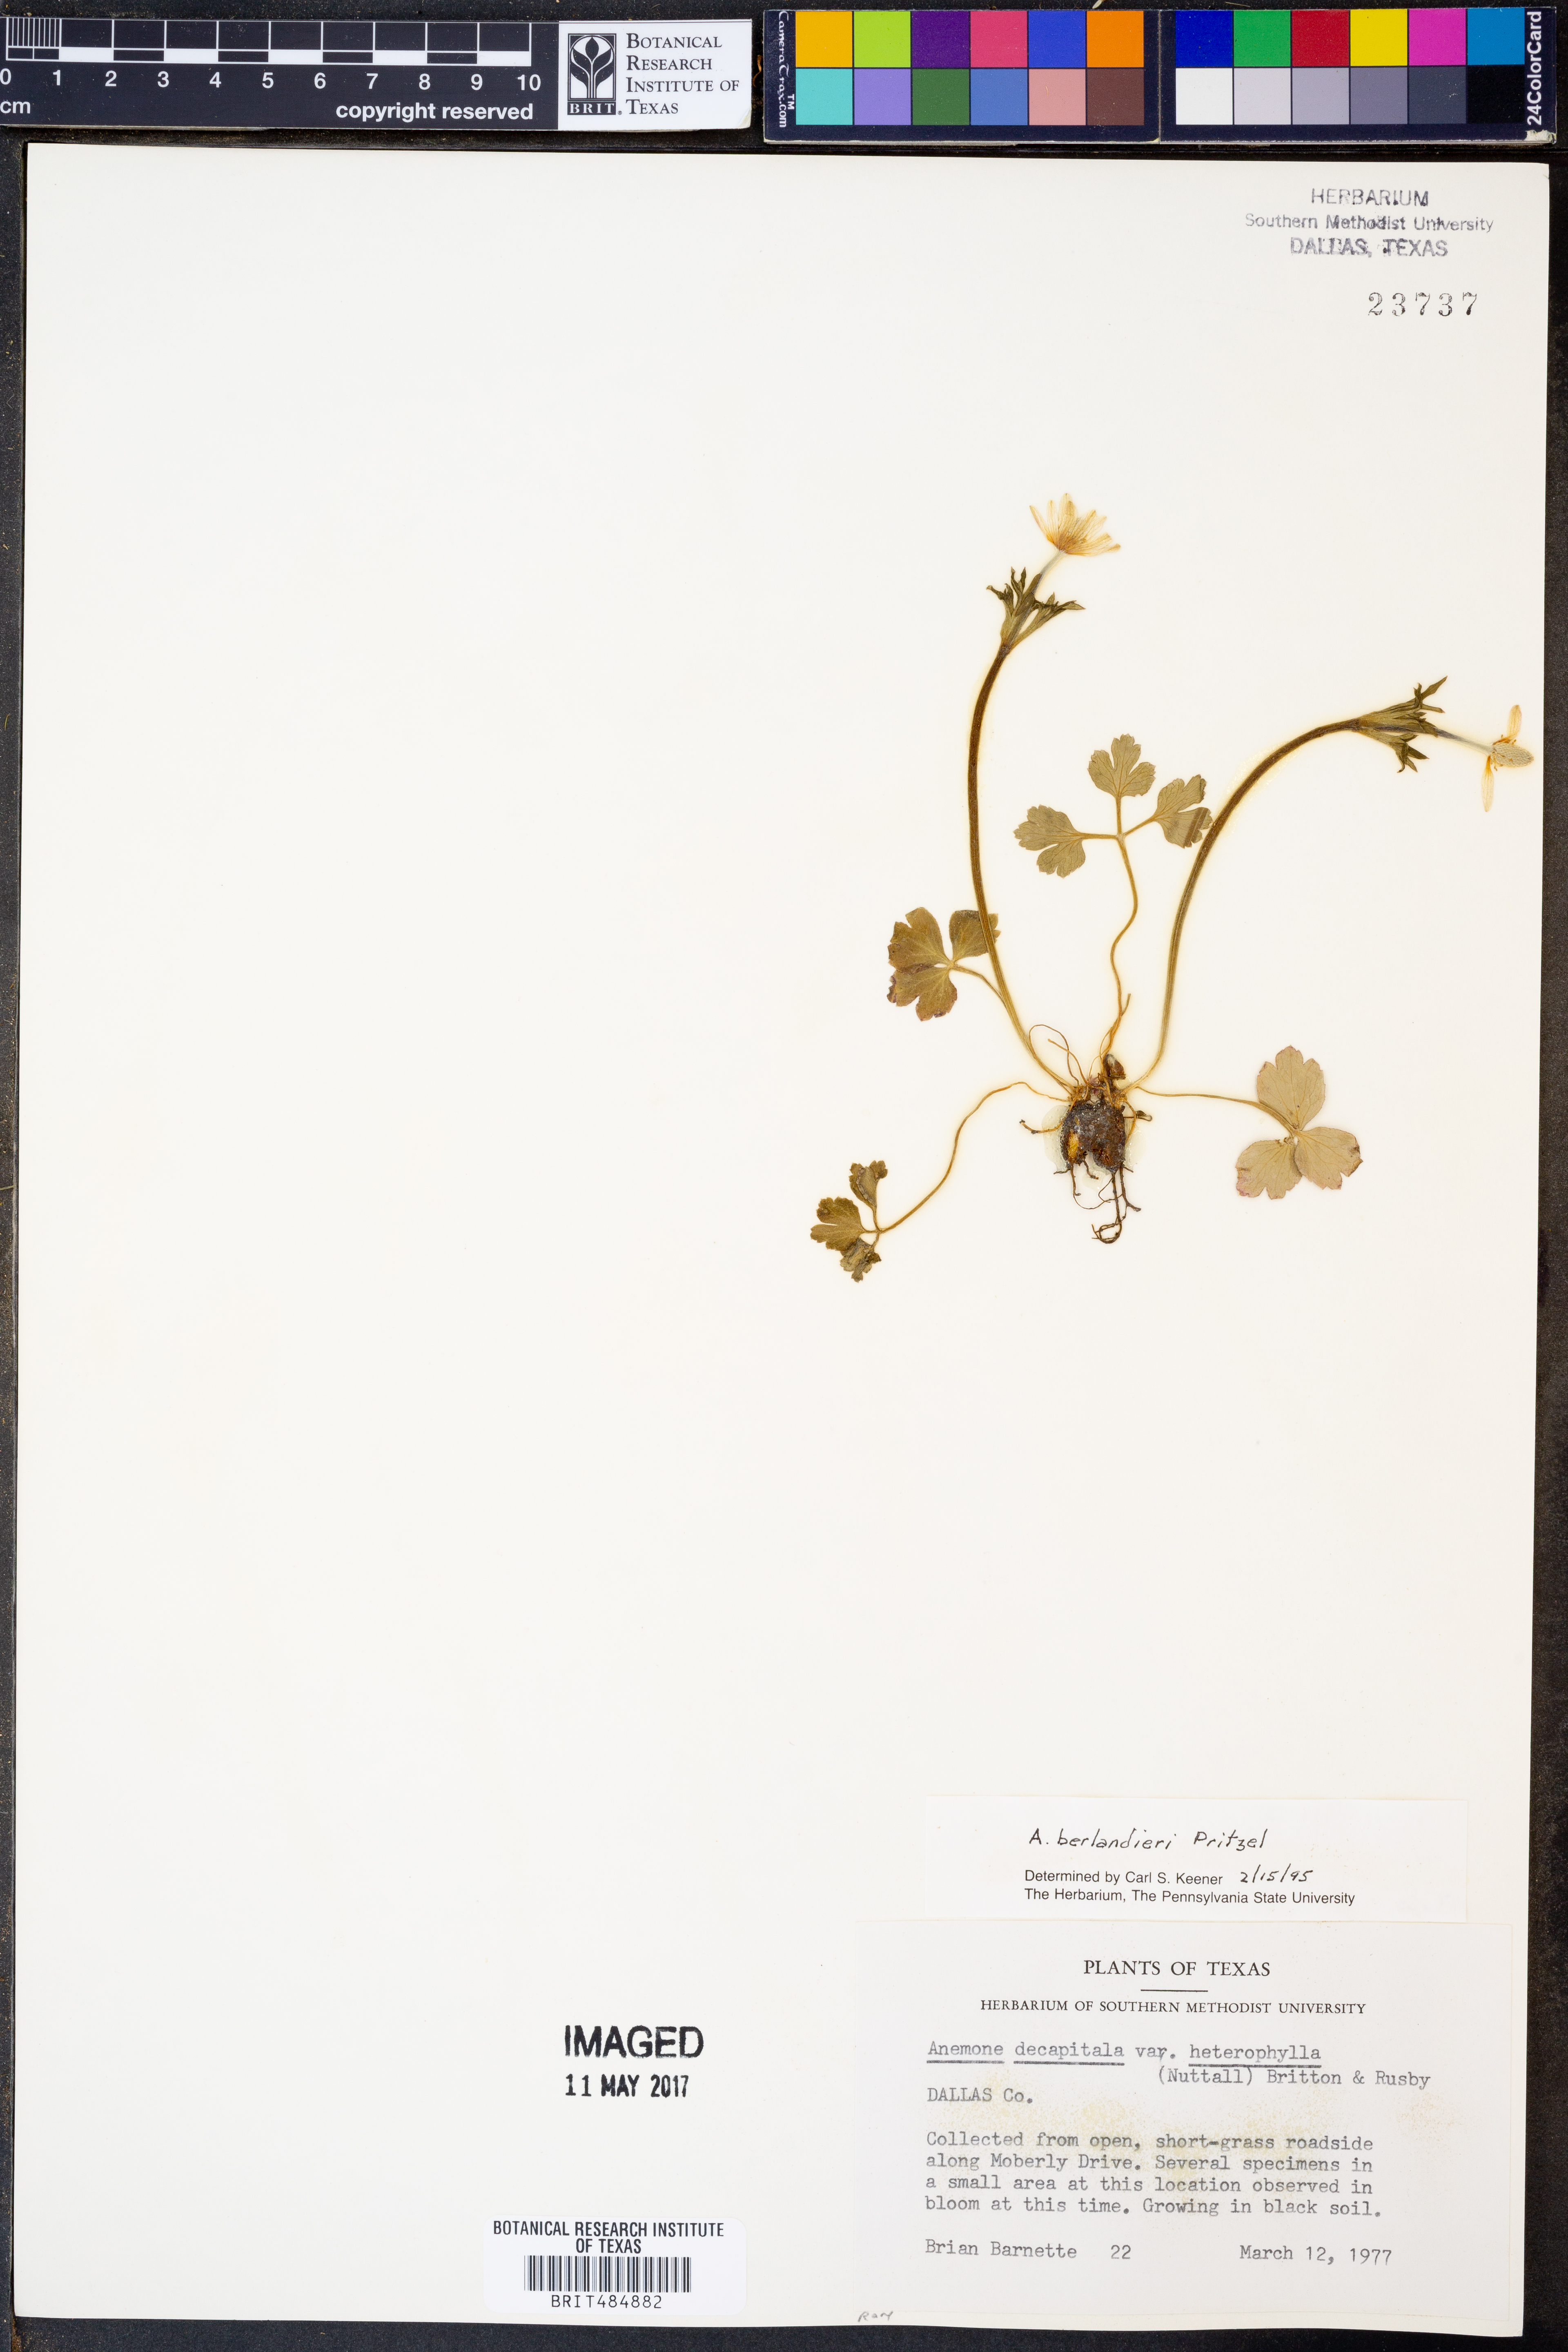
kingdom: Plantae
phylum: Tracheophyta
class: Magnoliopsida
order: Ranunculales
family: Ranunculaceae
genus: Anemone
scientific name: Anemone berlandieri
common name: Ten-petal anemone
